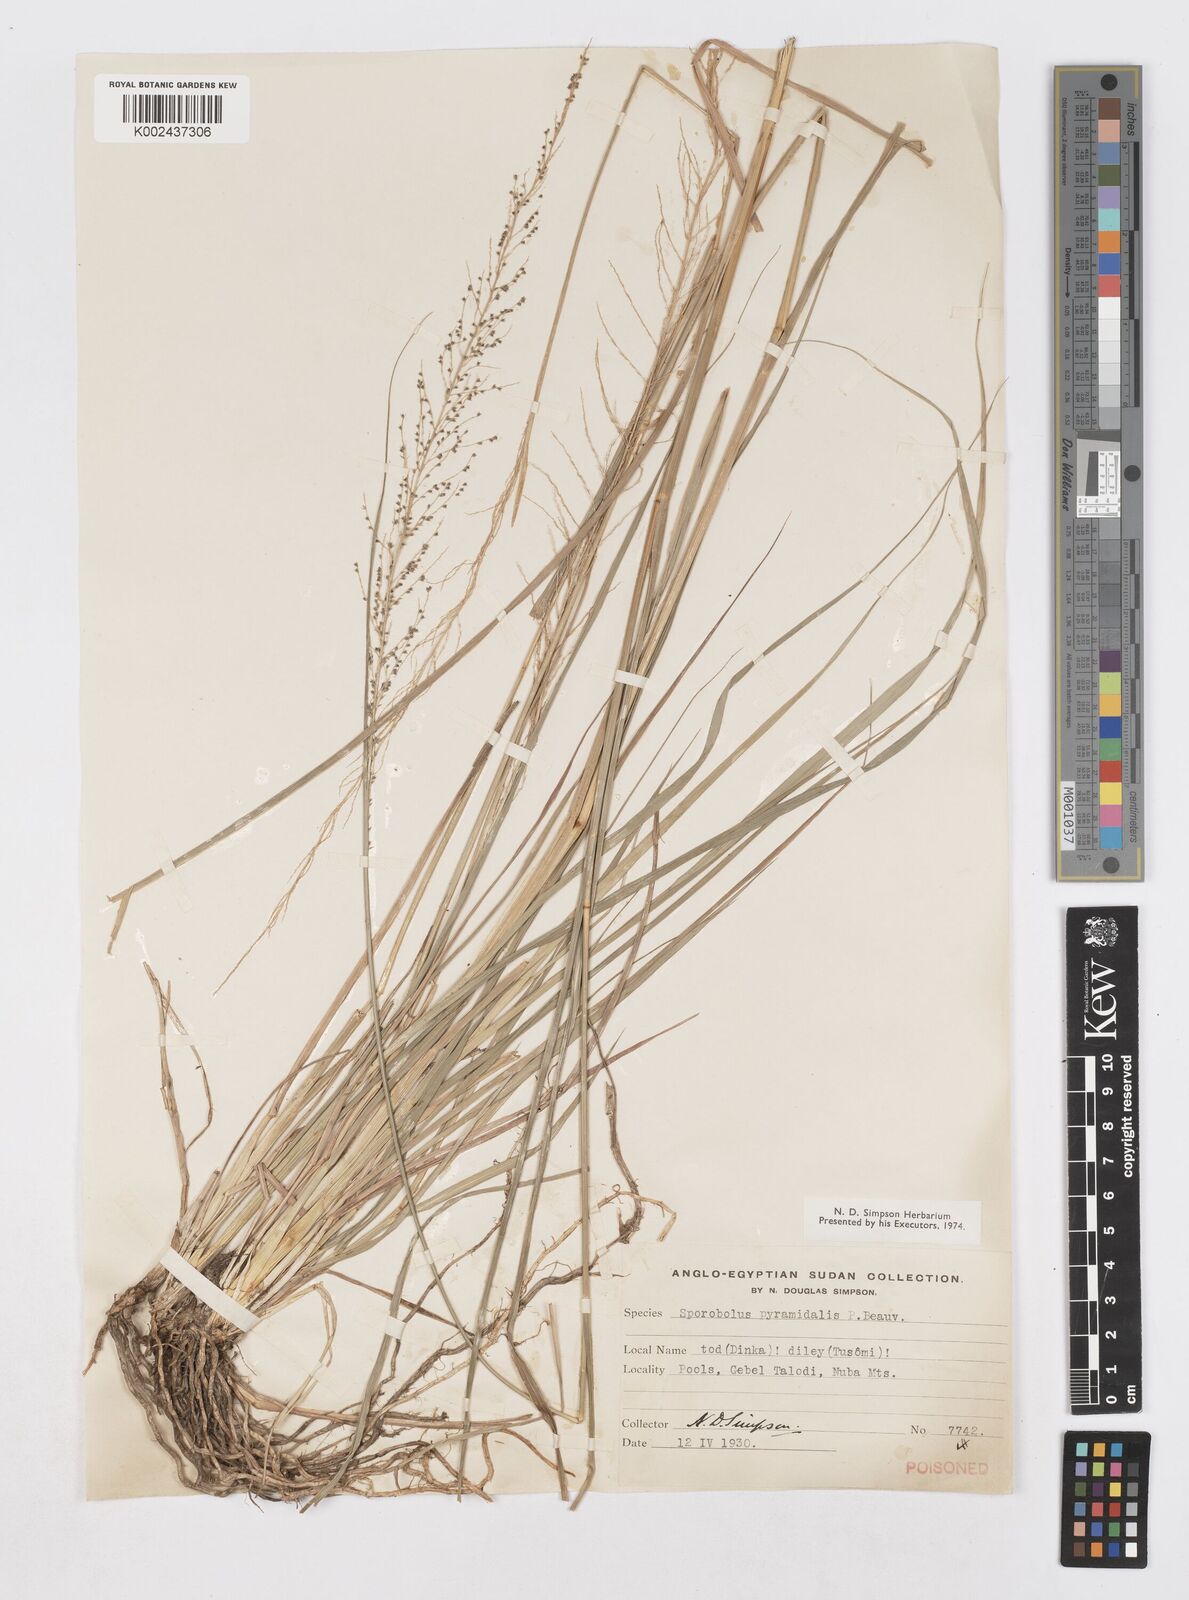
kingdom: Plantae
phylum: Tracheophyta
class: Liliopsida
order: Poales
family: Poaceae
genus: Sporobolus
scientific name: Sporobolus pyramidalis
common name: West indian dropseed
